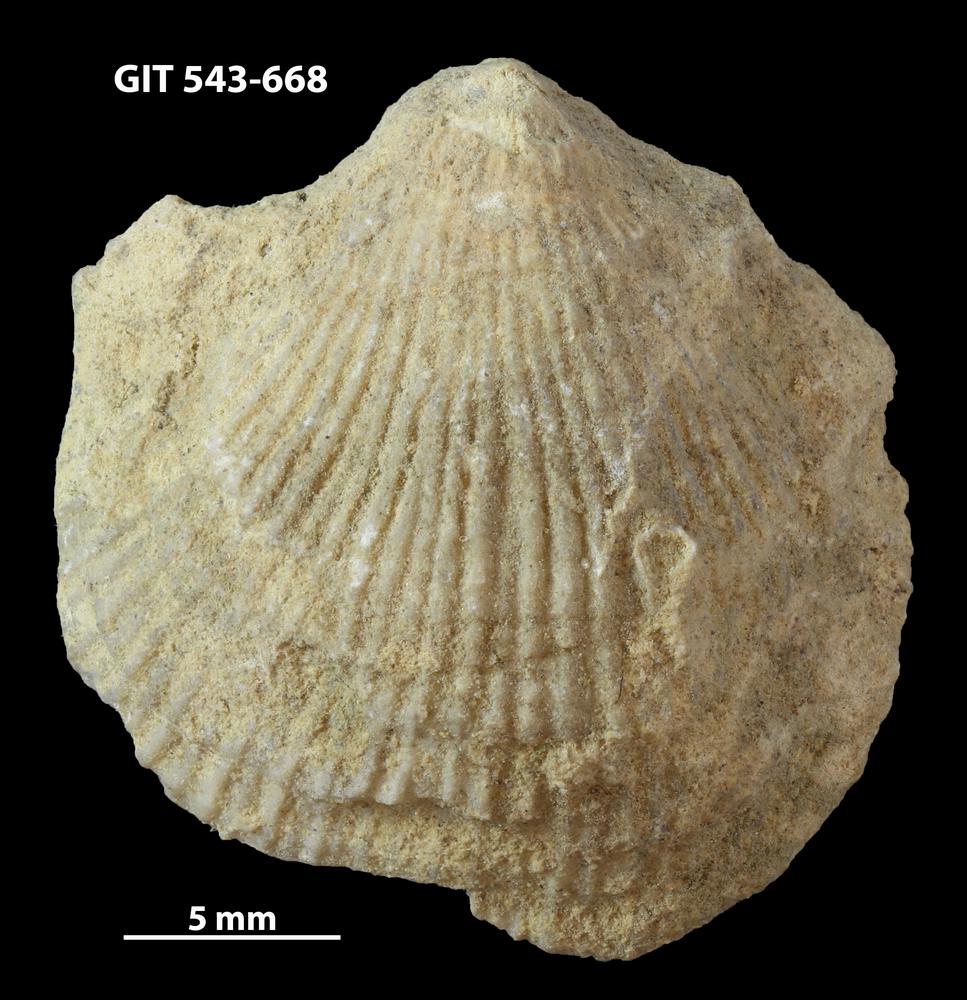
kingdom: Animalia
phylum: Brachiopoda
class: Rhynchonellata
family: Clitambonitidae
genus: Vellamo
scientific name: Vellamo
